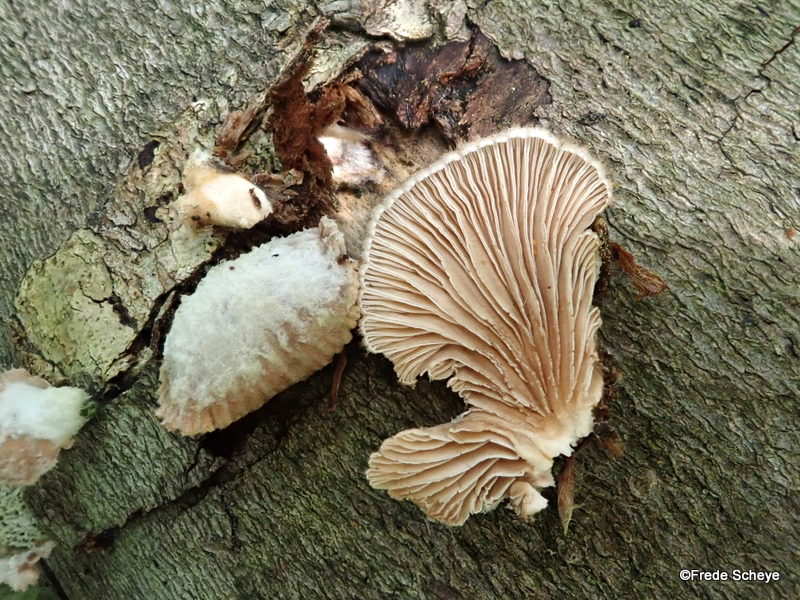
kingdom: Fungi
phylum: Basidiomycota
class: Agaricomycetes
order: Agaricales
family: Schizophyllaceae
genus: Schizophyllum
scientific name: Schizophyllum commune
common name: kløvblad
